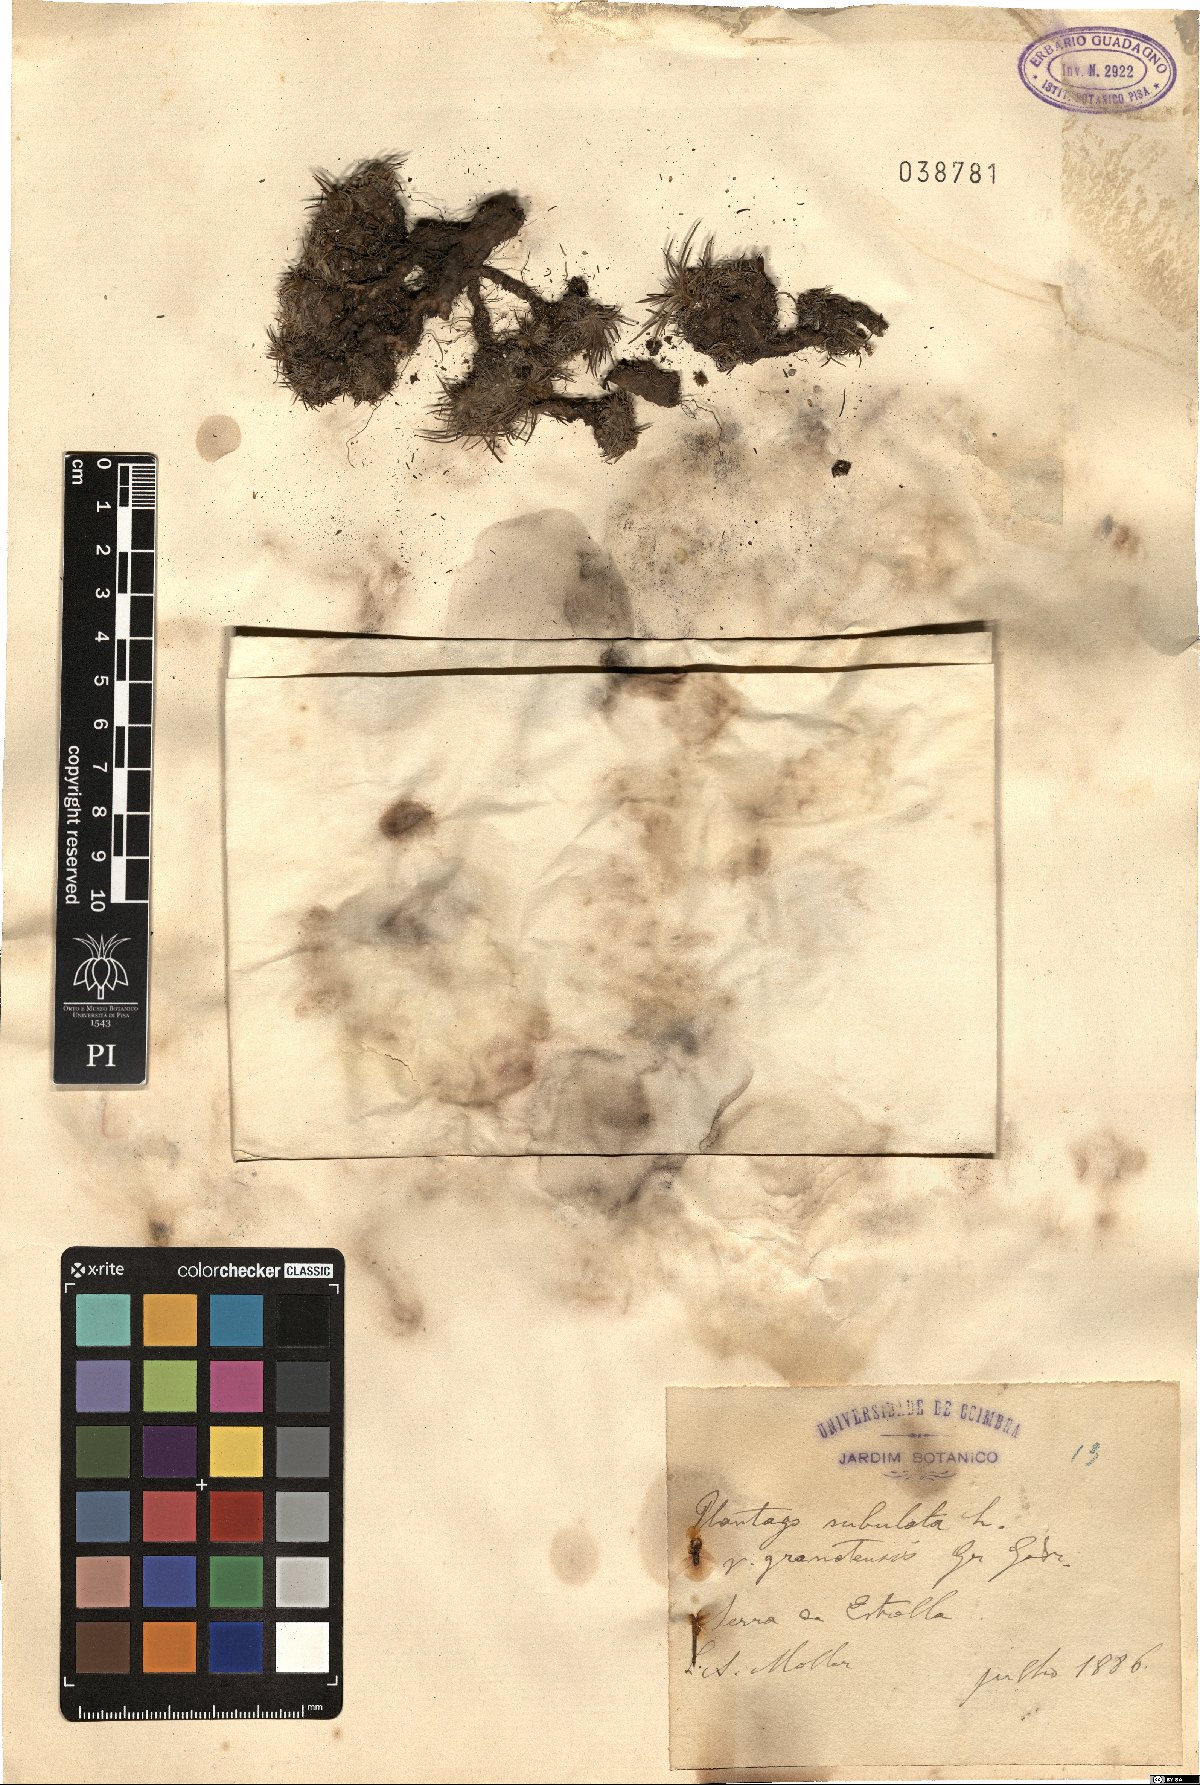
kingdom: Plantae
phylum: Tracheophyta
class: Magnoliopsida
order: Lamiales
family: Plantaginaceae
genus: Plantago
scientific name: Plantago subulata
